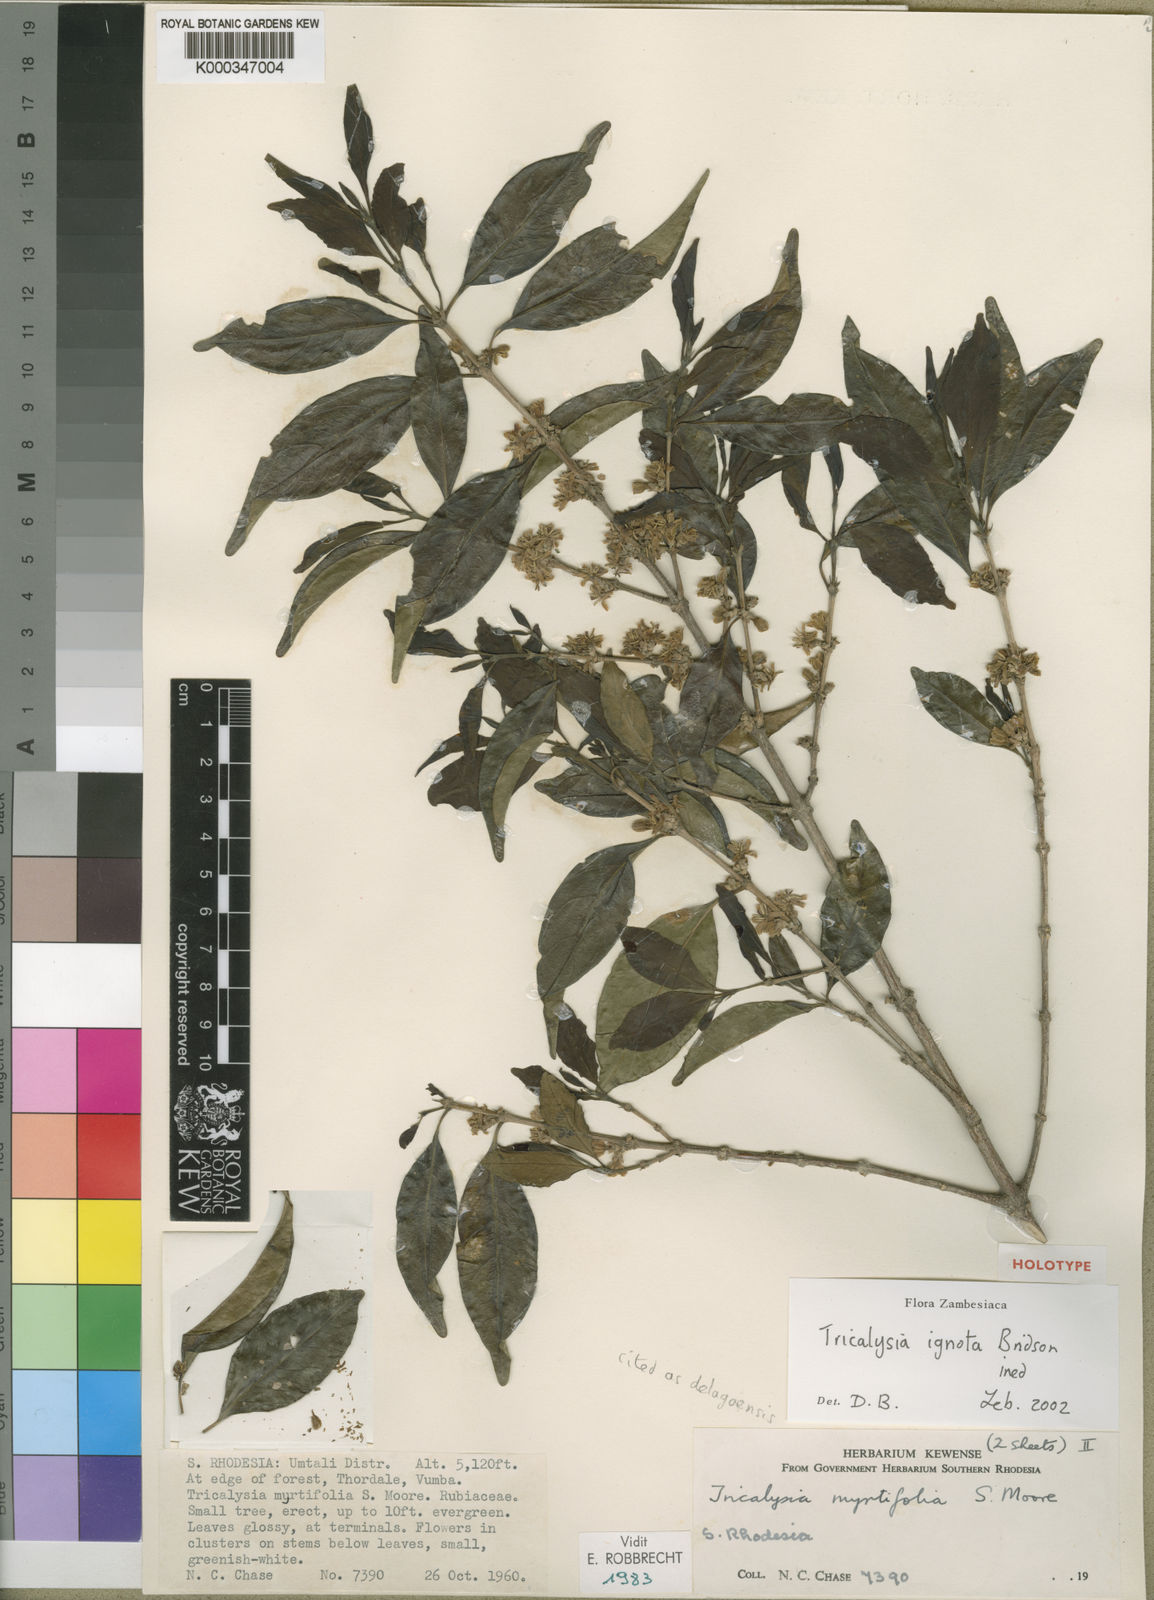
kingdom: Plantae
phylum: Tracheophyta
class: Magnoliopsida
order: Gentianales
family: Rubiaceae
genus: Tricalysia
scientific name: Tricalysia ignota
